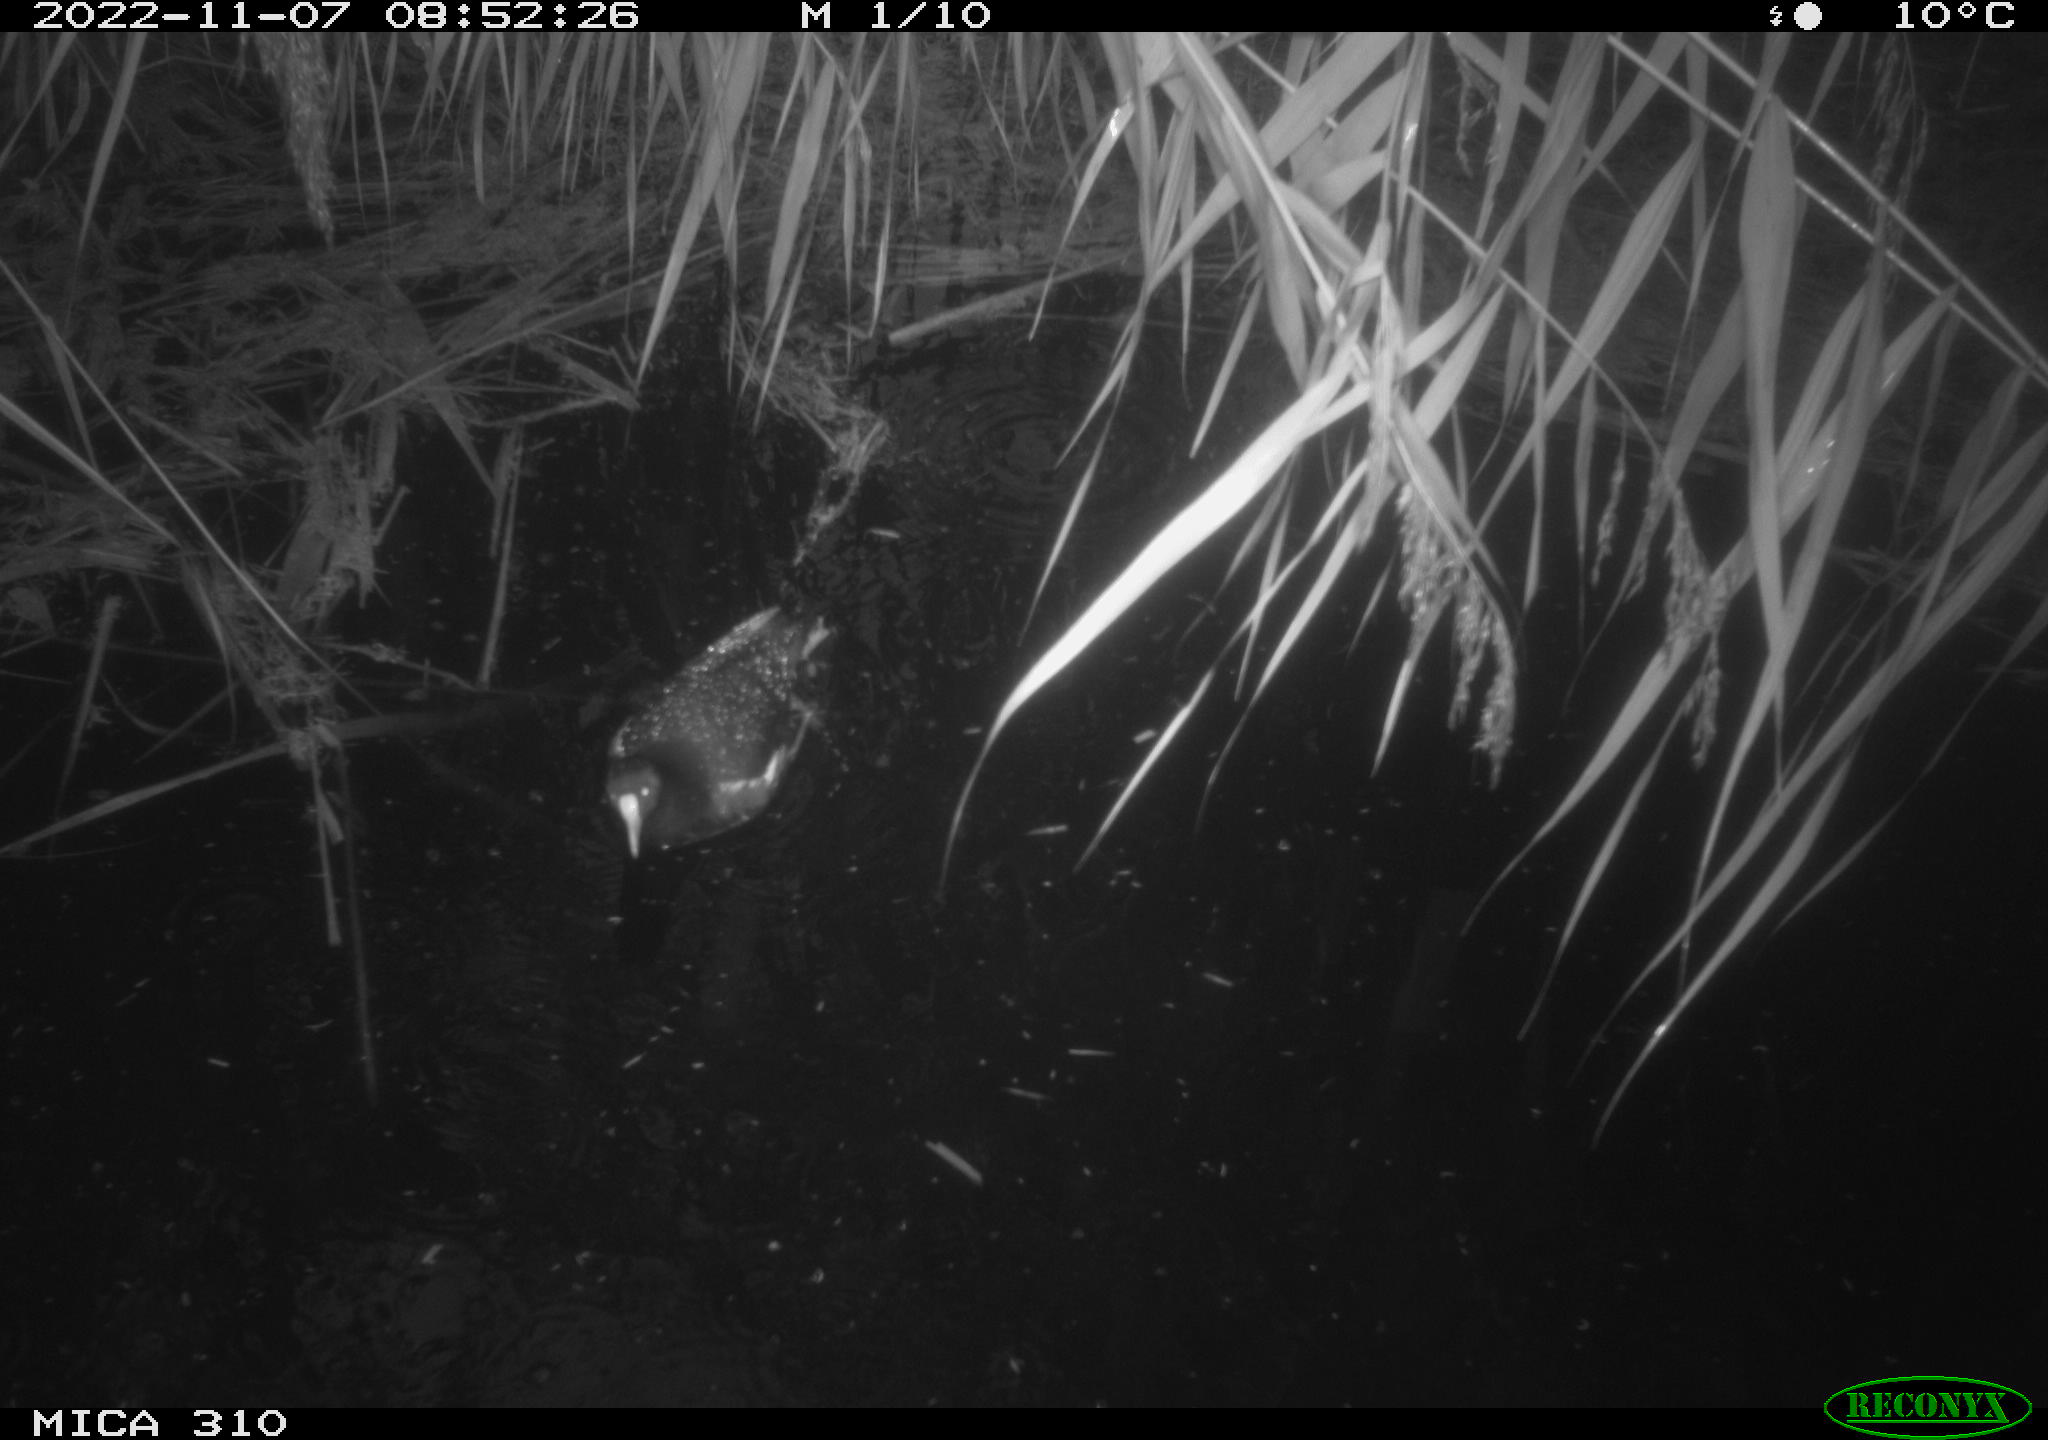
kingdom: Animalia
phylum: Chordata
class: Aves
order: Gruiformes
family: Rallidae
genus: Gallinula
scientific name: Gallinula chloropus
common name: Common moorhen
